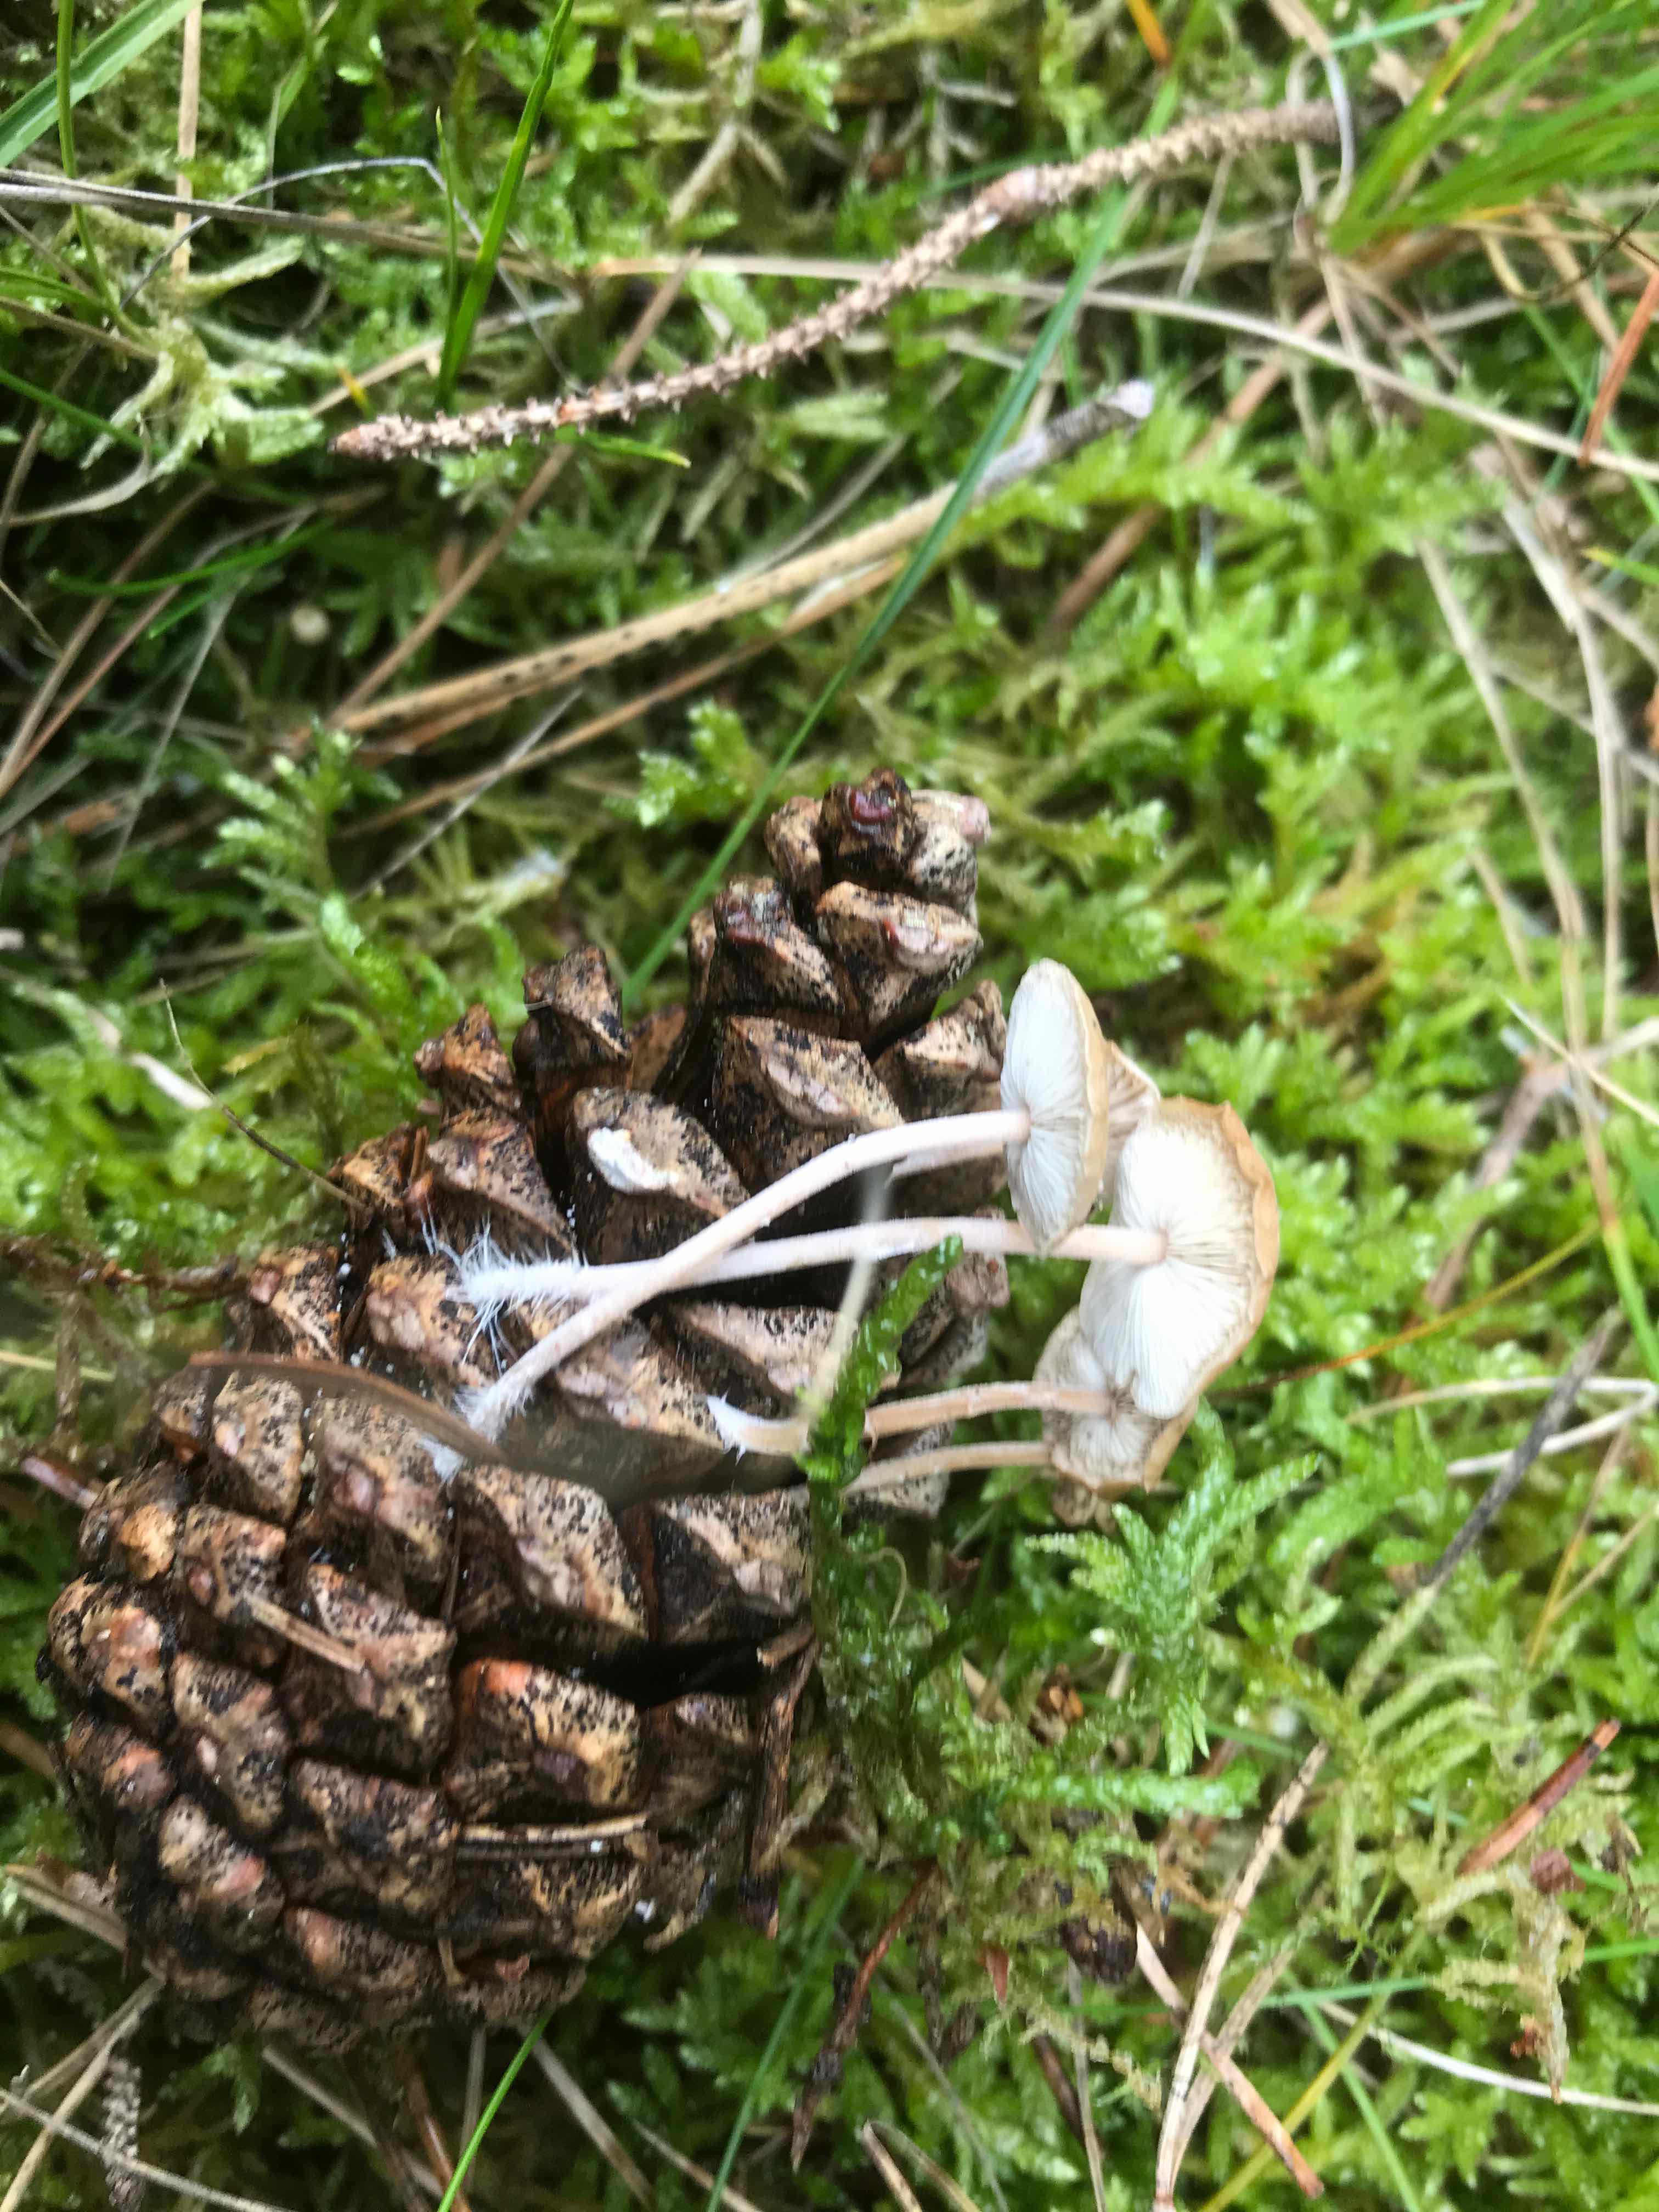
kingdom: Fungi
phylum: Basidiomycota
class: Agaricomycetes
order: Agaricales
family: Marasmiaceae
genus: Baeospora
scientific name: Baeospora myosura
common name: koglebruskhat
